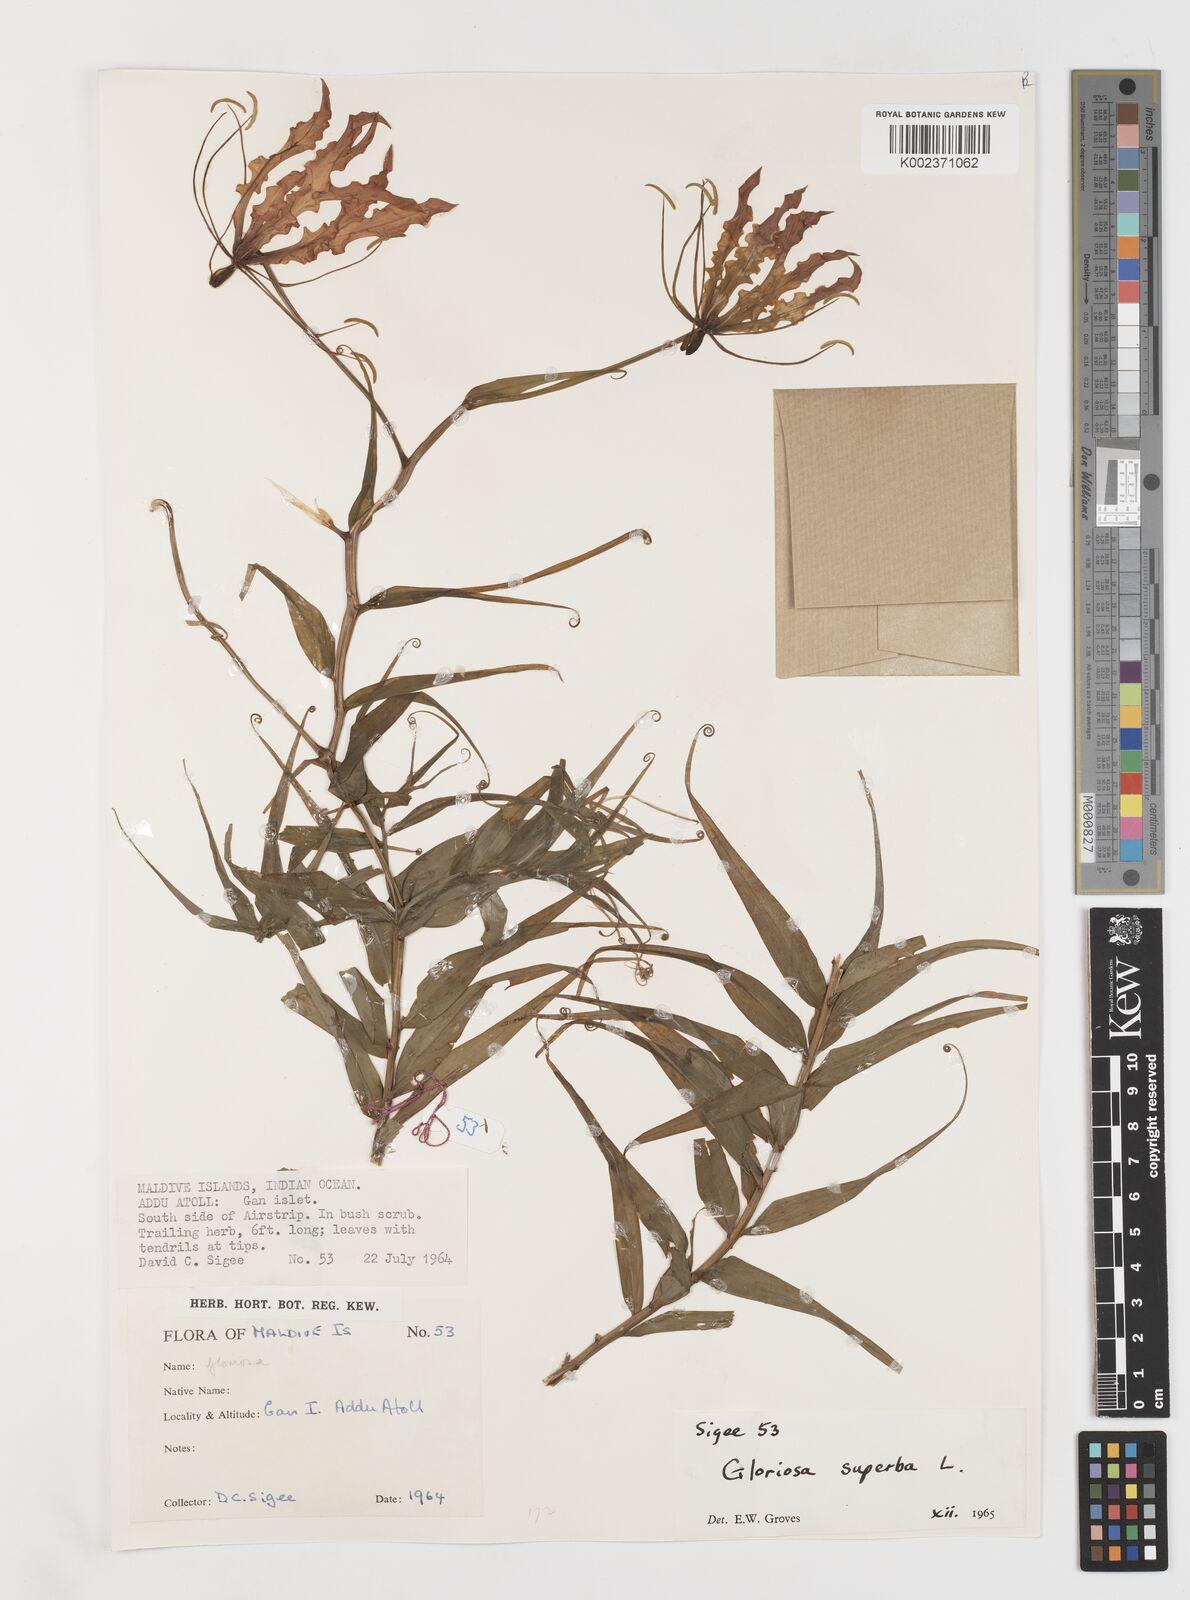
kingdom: Plantae
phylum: Tracheophyta
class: Liliopsida
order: Liliales
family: Colchicaceae
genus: Gloriosa
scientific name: Gloriosa superba
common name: Flame lily
